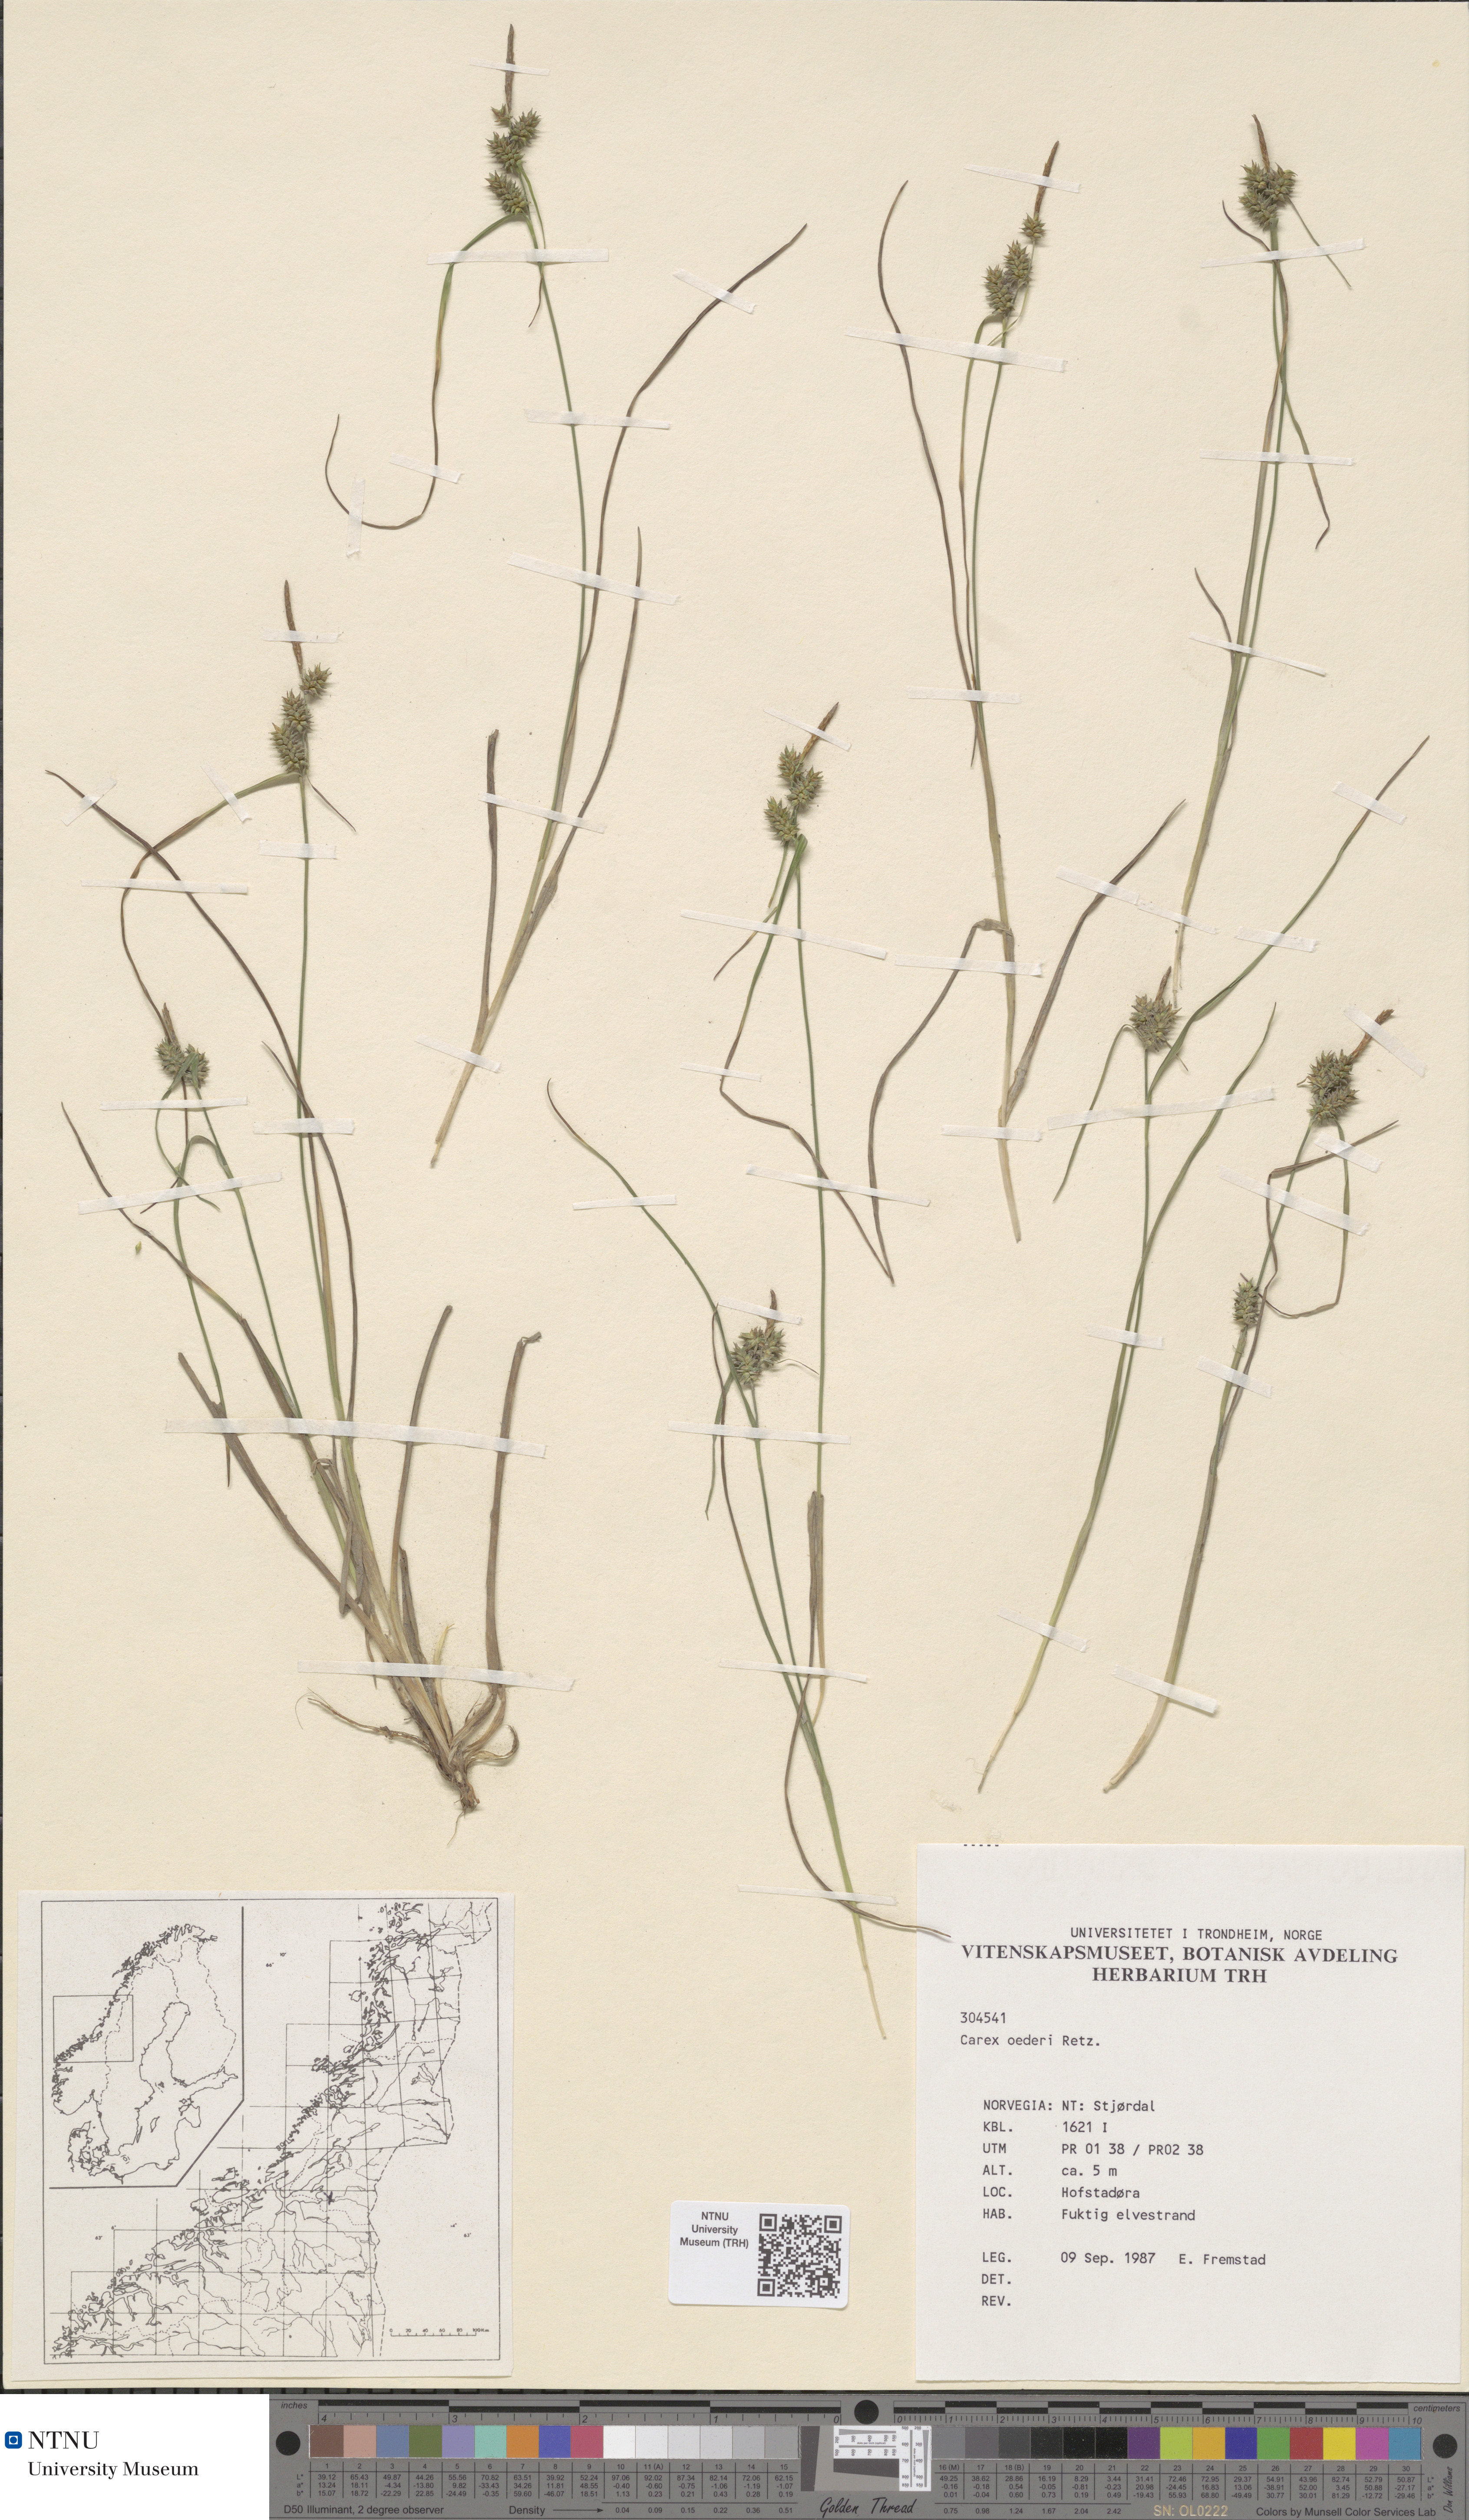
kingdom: Plantae
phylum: Tracheophyta
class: Liliopsida
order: Poales
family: Cyperaceae
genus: Carex
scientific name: Carex oederi
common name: Common & small-fruited yellow-sedge
